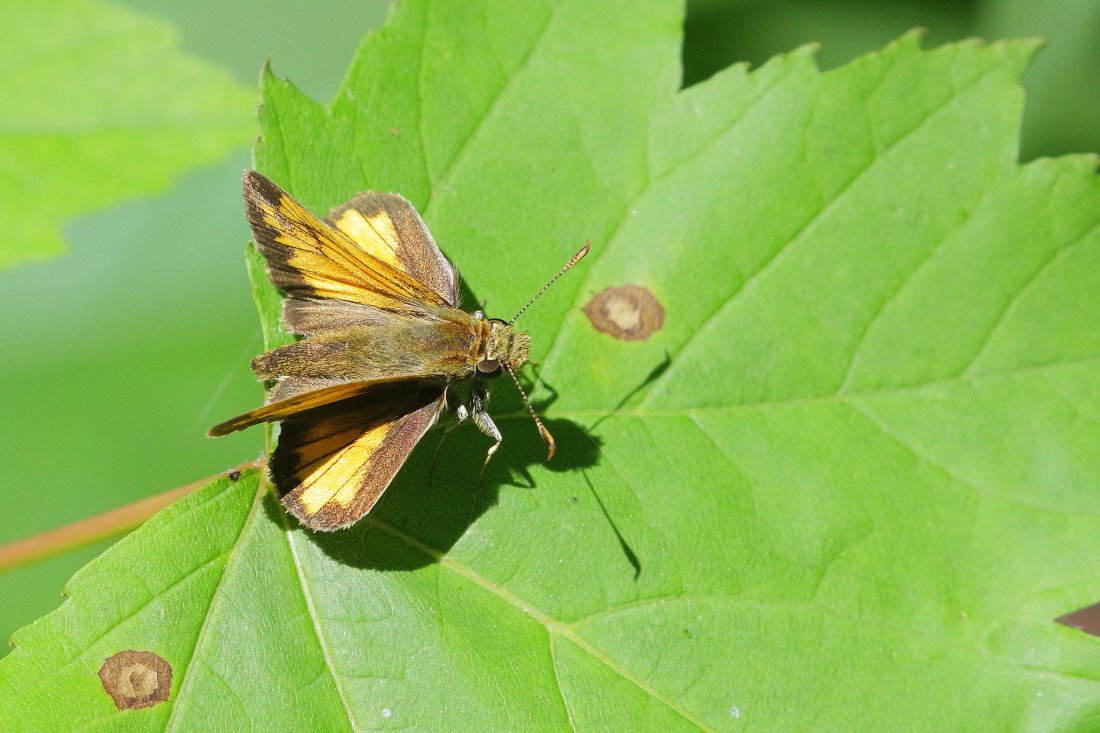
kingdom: Animalia
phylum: Arthropoda
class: Insecta
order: Lepidoptera
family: Hesperiidae
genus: Lon
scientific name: Lon hobomok
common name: Hobomok Skipper
